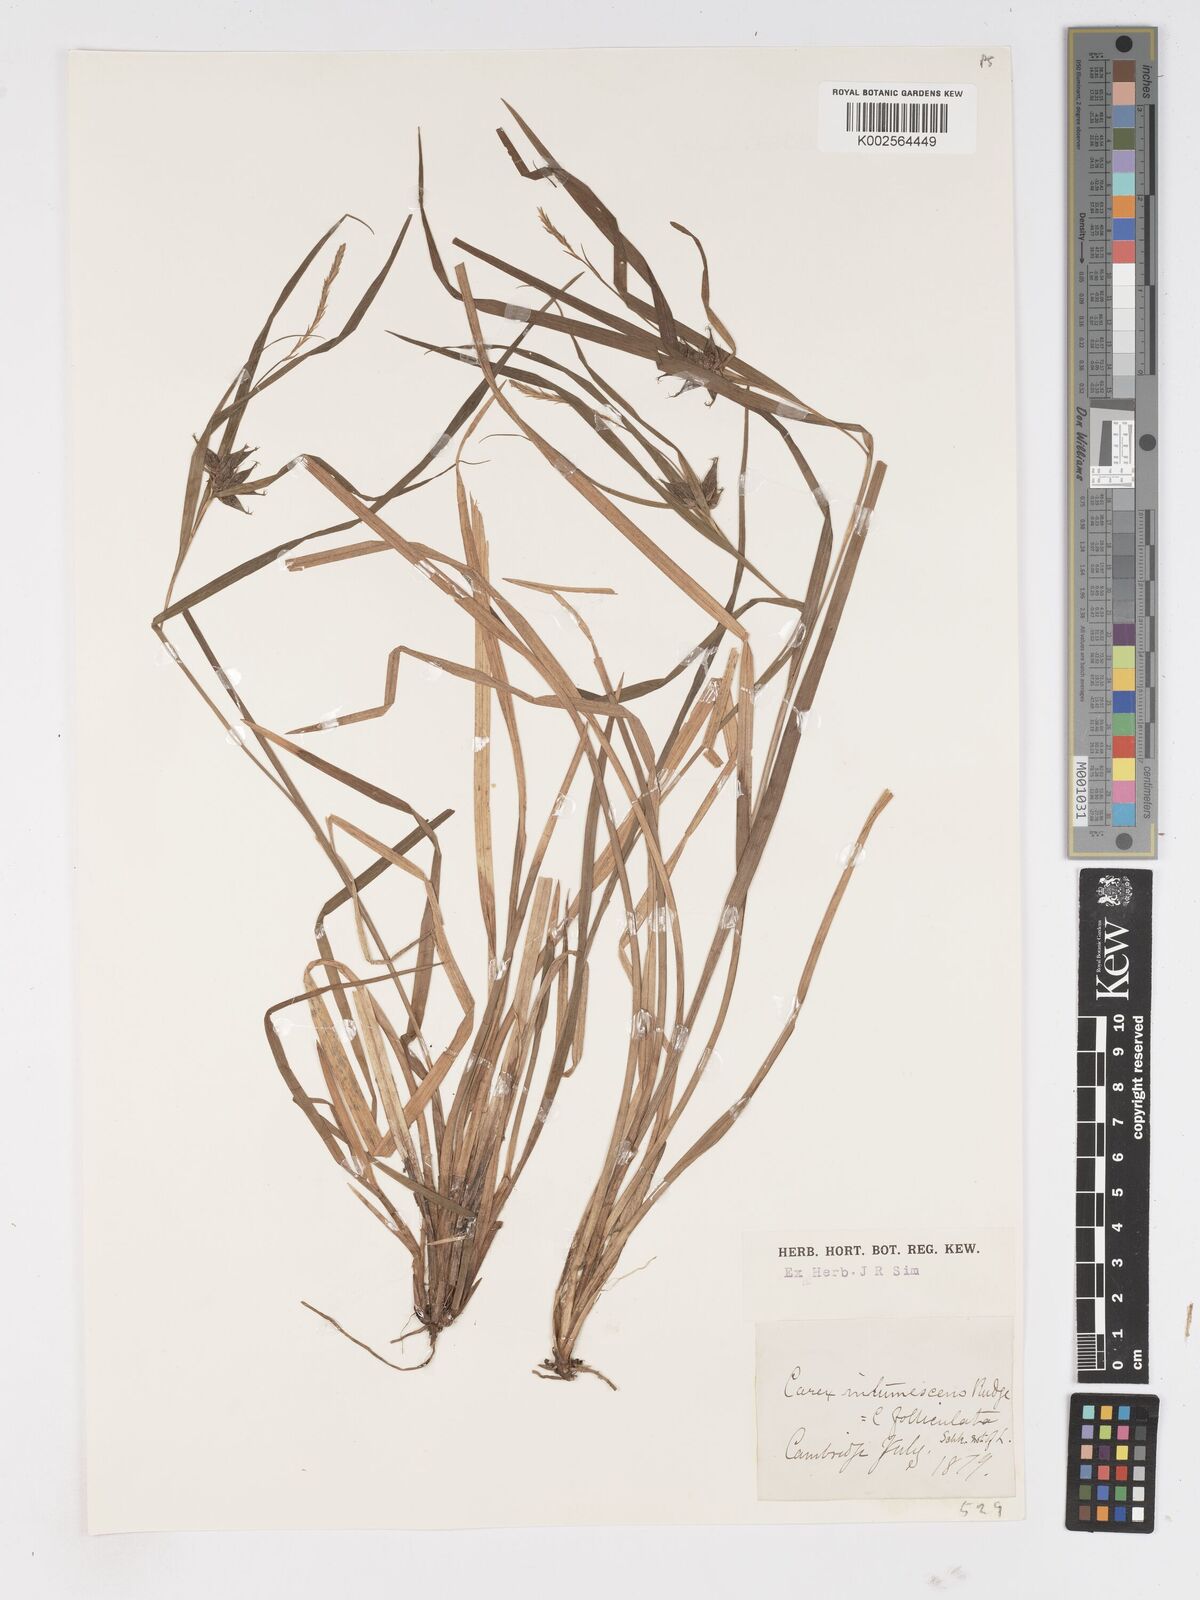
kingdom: Plantae
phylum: Tracheophyta
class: Liliopsida
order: Poales
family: Cyperaceae
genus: Carex
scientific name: Carex intumescens
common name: Greater bladder sedge
